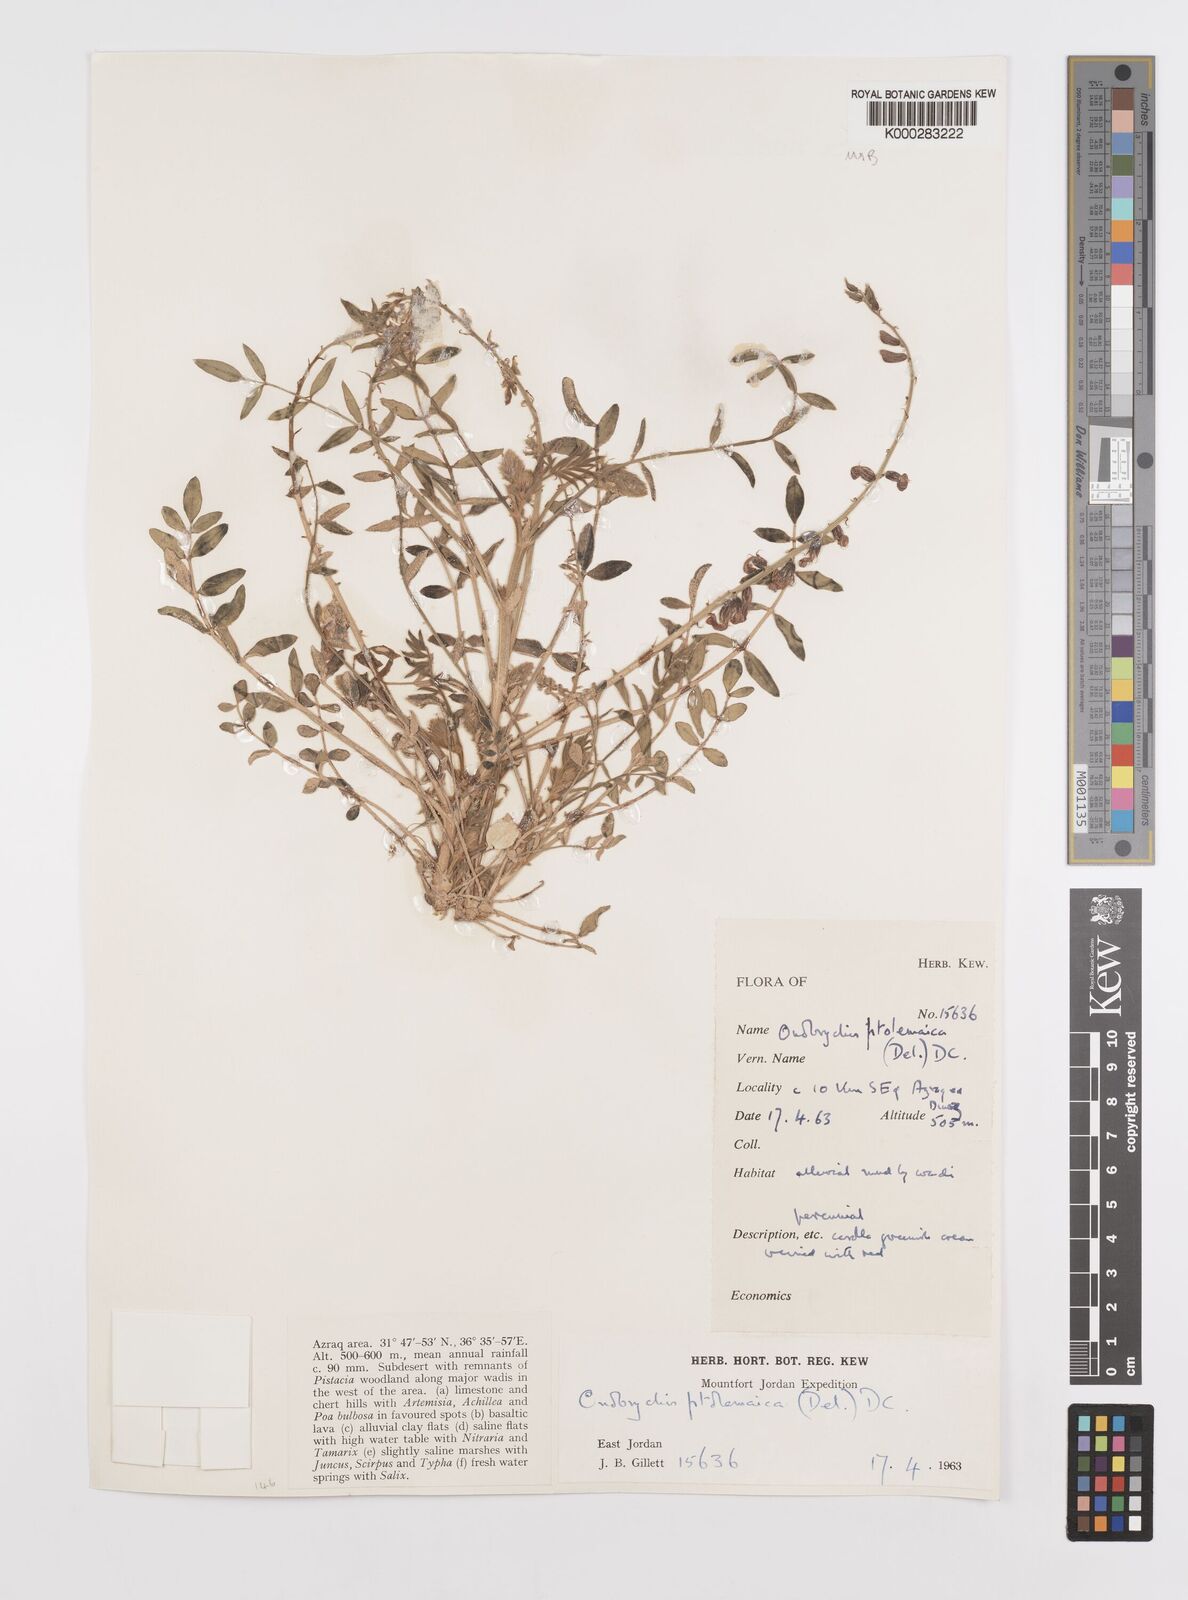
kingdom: Plantae
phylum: Tracheophyta
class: Magnoliopsida
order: Fabales
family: Fabaceae
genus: Onobrychis
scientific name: Onobrychis ptolemaica
